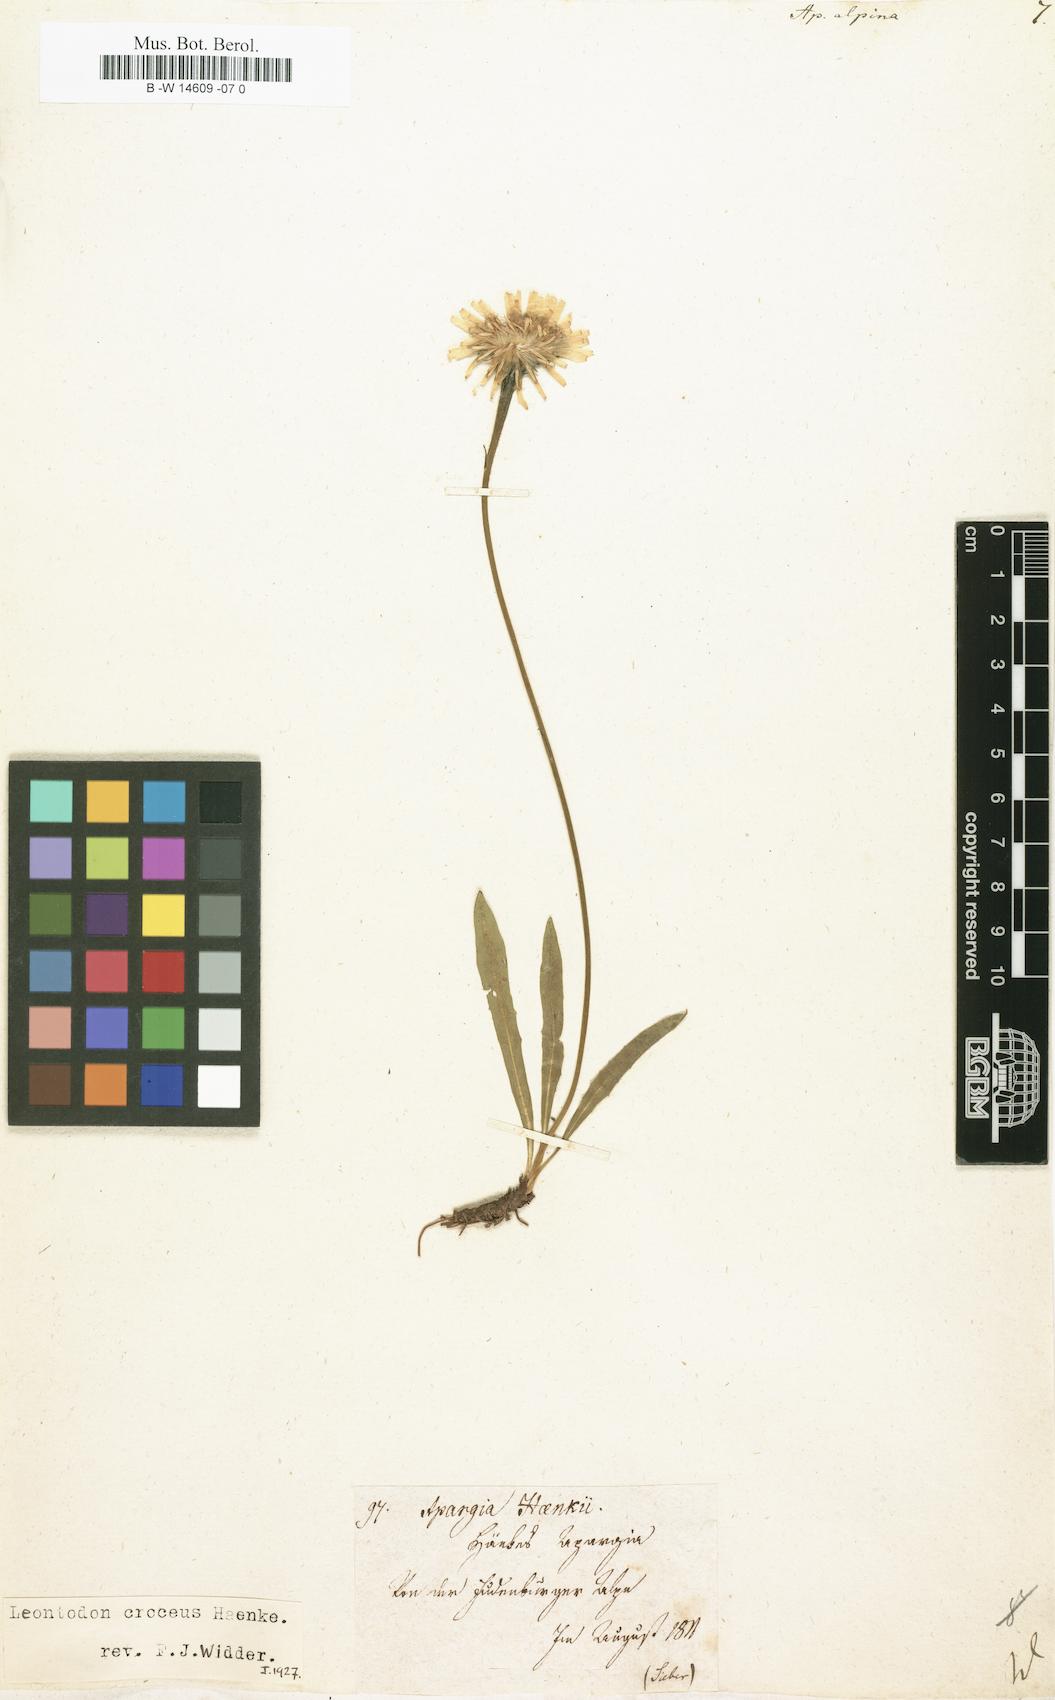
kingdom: Plantae
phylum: Tracheophyta
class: Magnoliopsida
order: Asterales
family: Asteraceae
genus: Scorzoneroides
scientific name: Scorzoneroides pyrenaica
